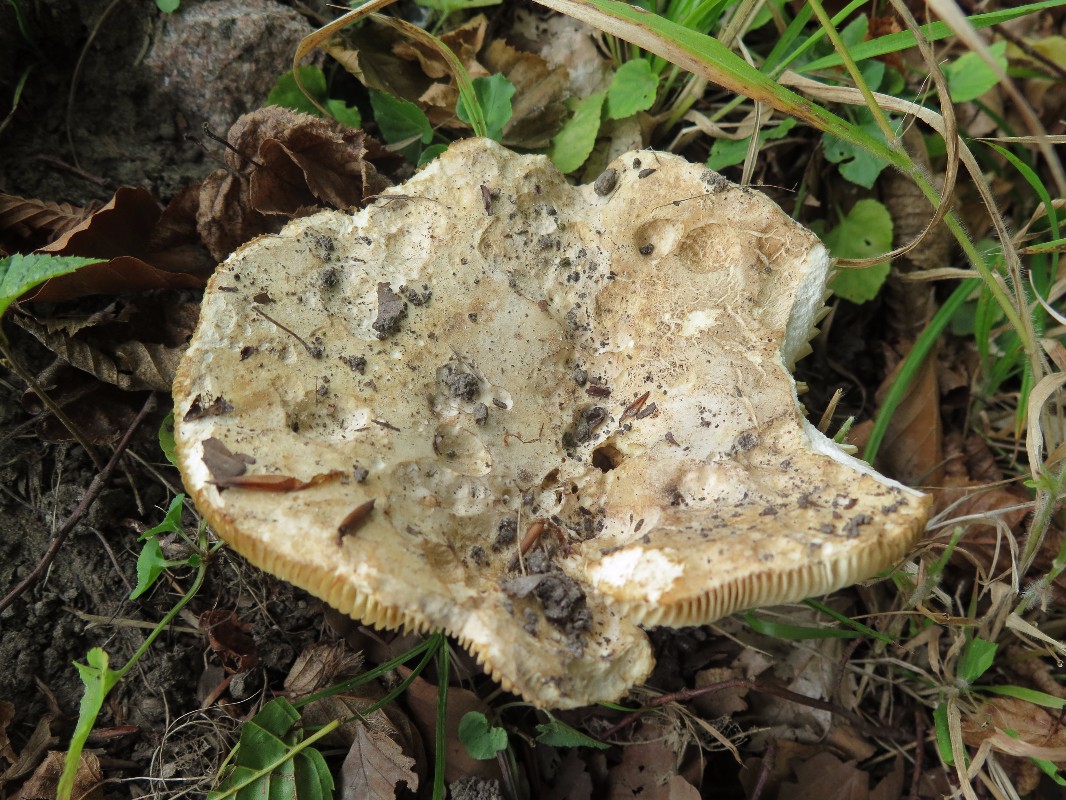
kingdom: Fungi
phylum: Basidiomycota
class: Agaricomycetes
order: Russulales
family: Russulaceae
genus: Russula
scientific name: Russula flavispora
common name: gulsporet tragt-skørhat
